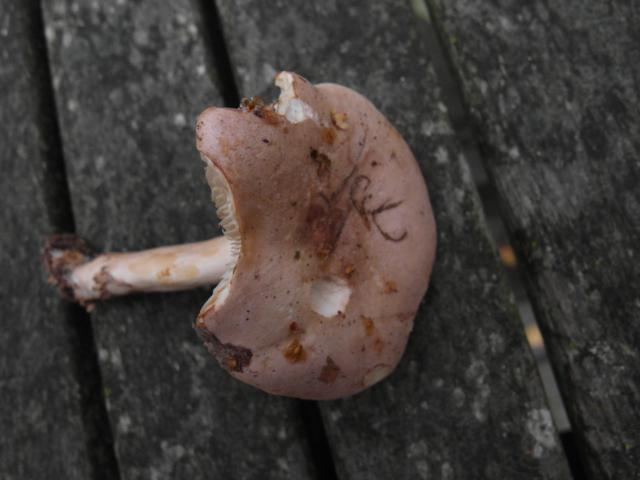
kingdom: Fungi
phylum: Basidiomycota
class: Agaricomycetes
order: Russulales
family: Russulaceae
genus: Lactarius
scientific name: Lactarius trivialis
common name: nordisk mælkehat
